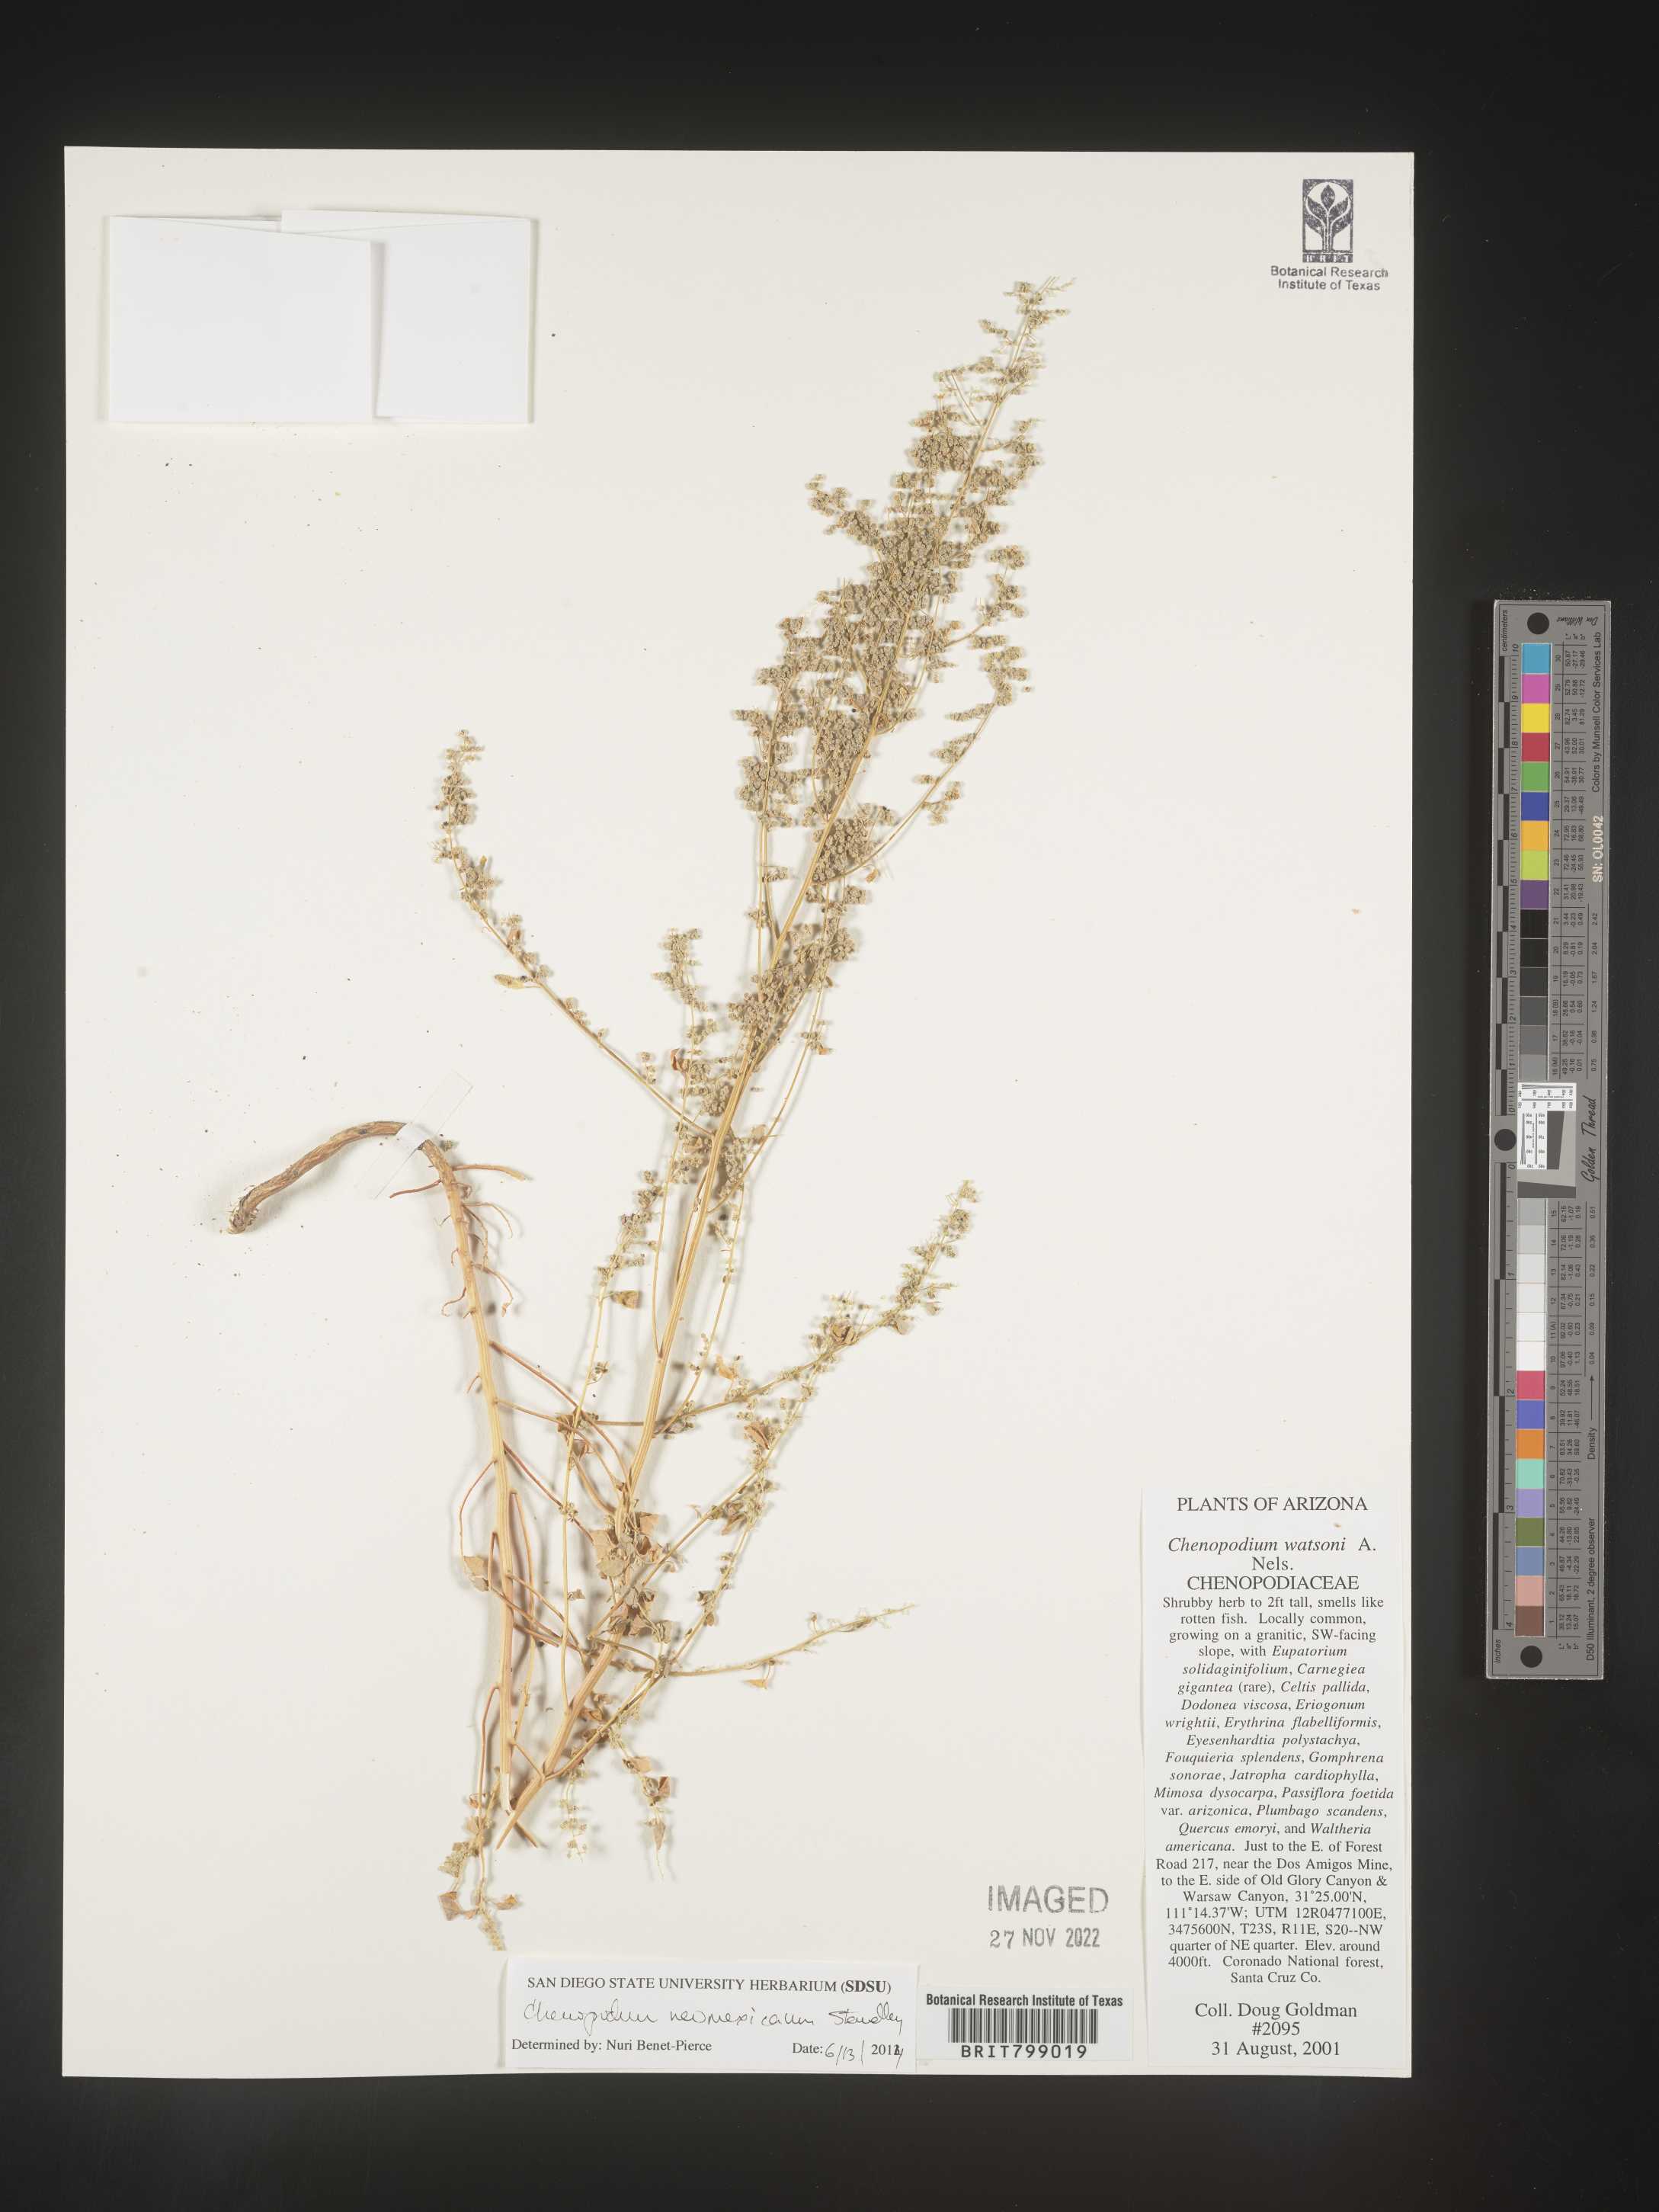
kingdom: Plantae
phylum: Tracheophyta
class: Magnoliopsida
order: Caryophyllales
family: Amaranthaceae
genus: Chenopodium
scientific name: Chenopodium watsonii
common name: Watson's goosefoot
